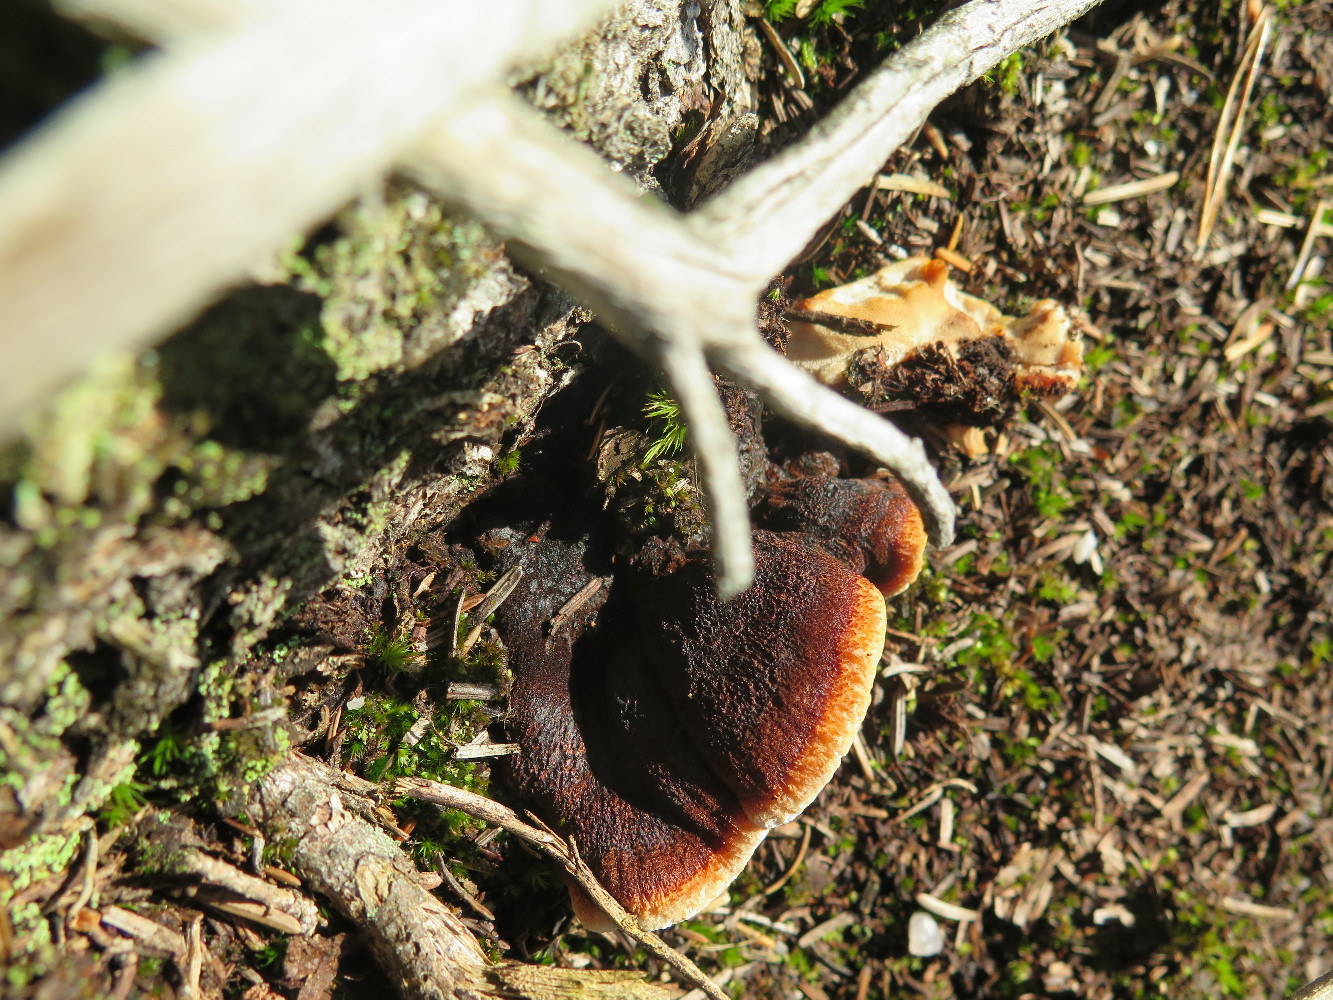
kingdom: Fungi
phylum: Basidiomycota
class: Agaricomycetes
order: Polyporales
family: Ischnodermataceae
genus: Ischnoderma
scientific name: Ischnoderma benzoinum
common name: gran-tjæreporesvamp
